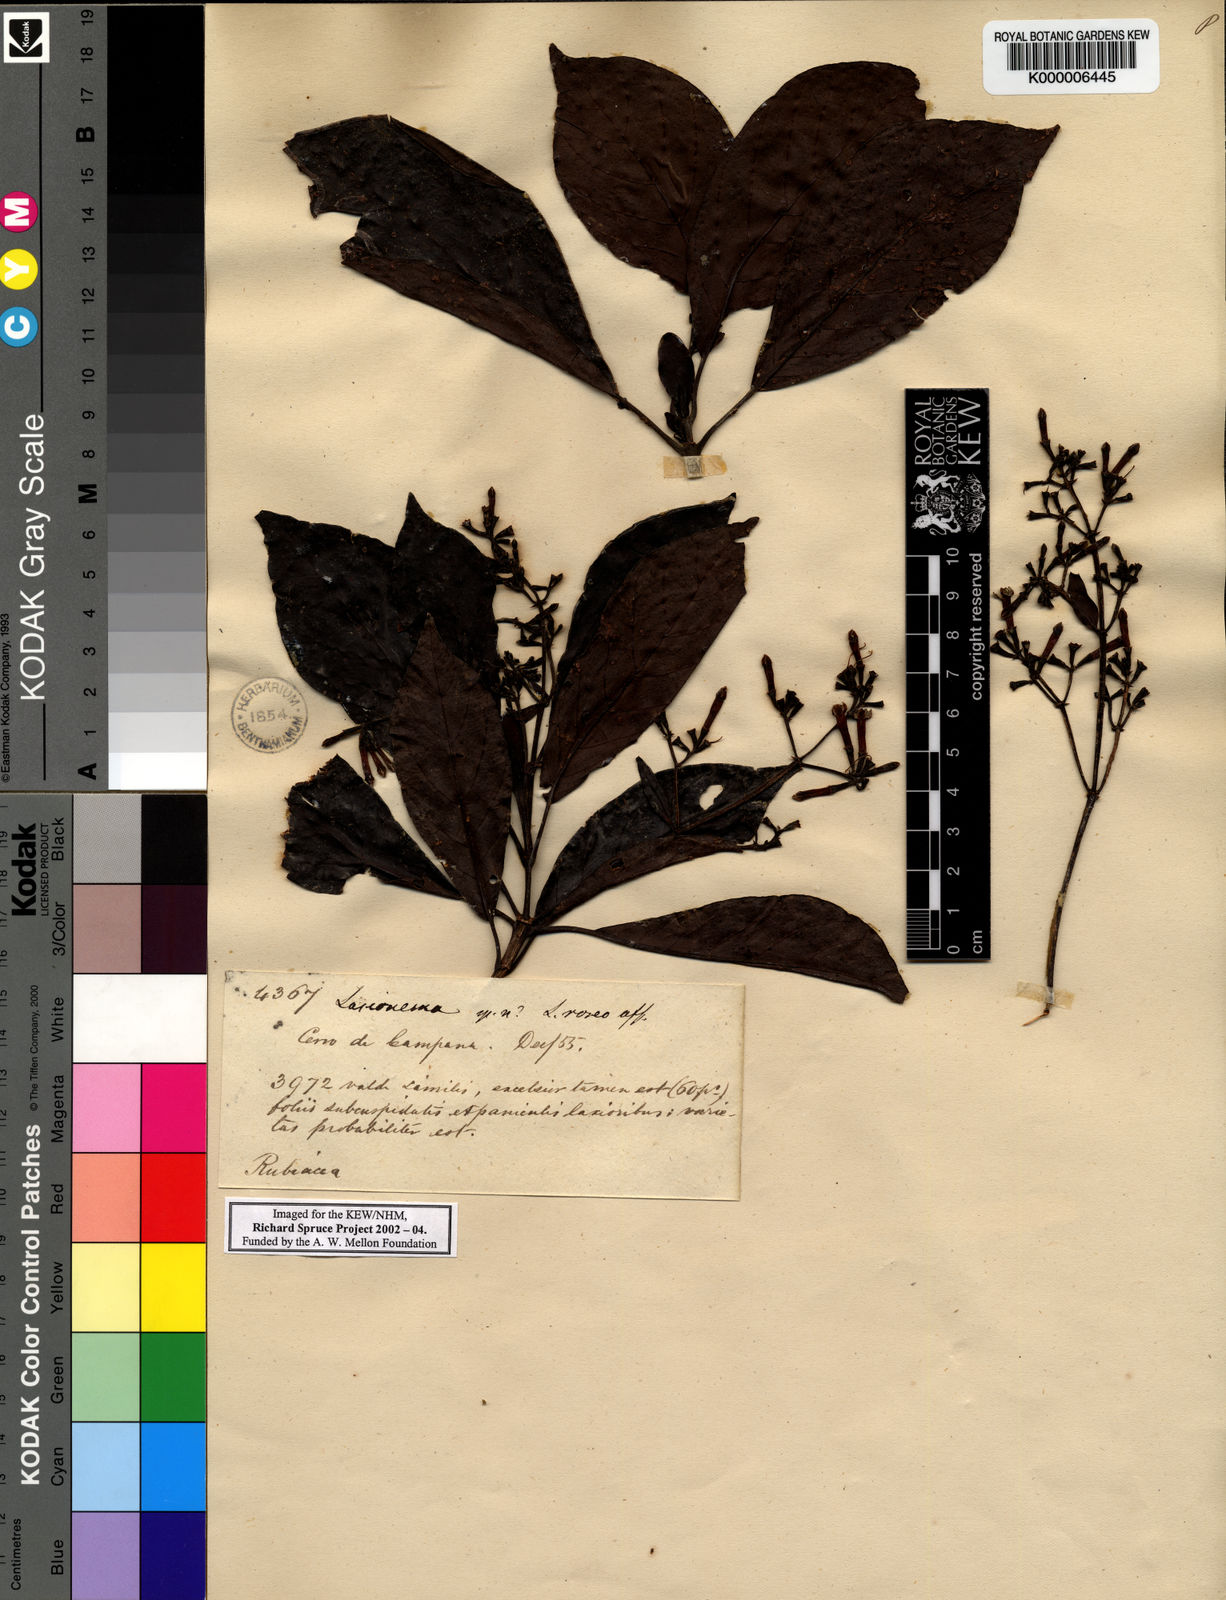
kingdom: Plantae
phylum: Tracheophyta
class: Magnoliopsida
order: Gentianales
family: Rubiaceae
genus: Macrocnemum
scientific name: Macrocnemum roseum
